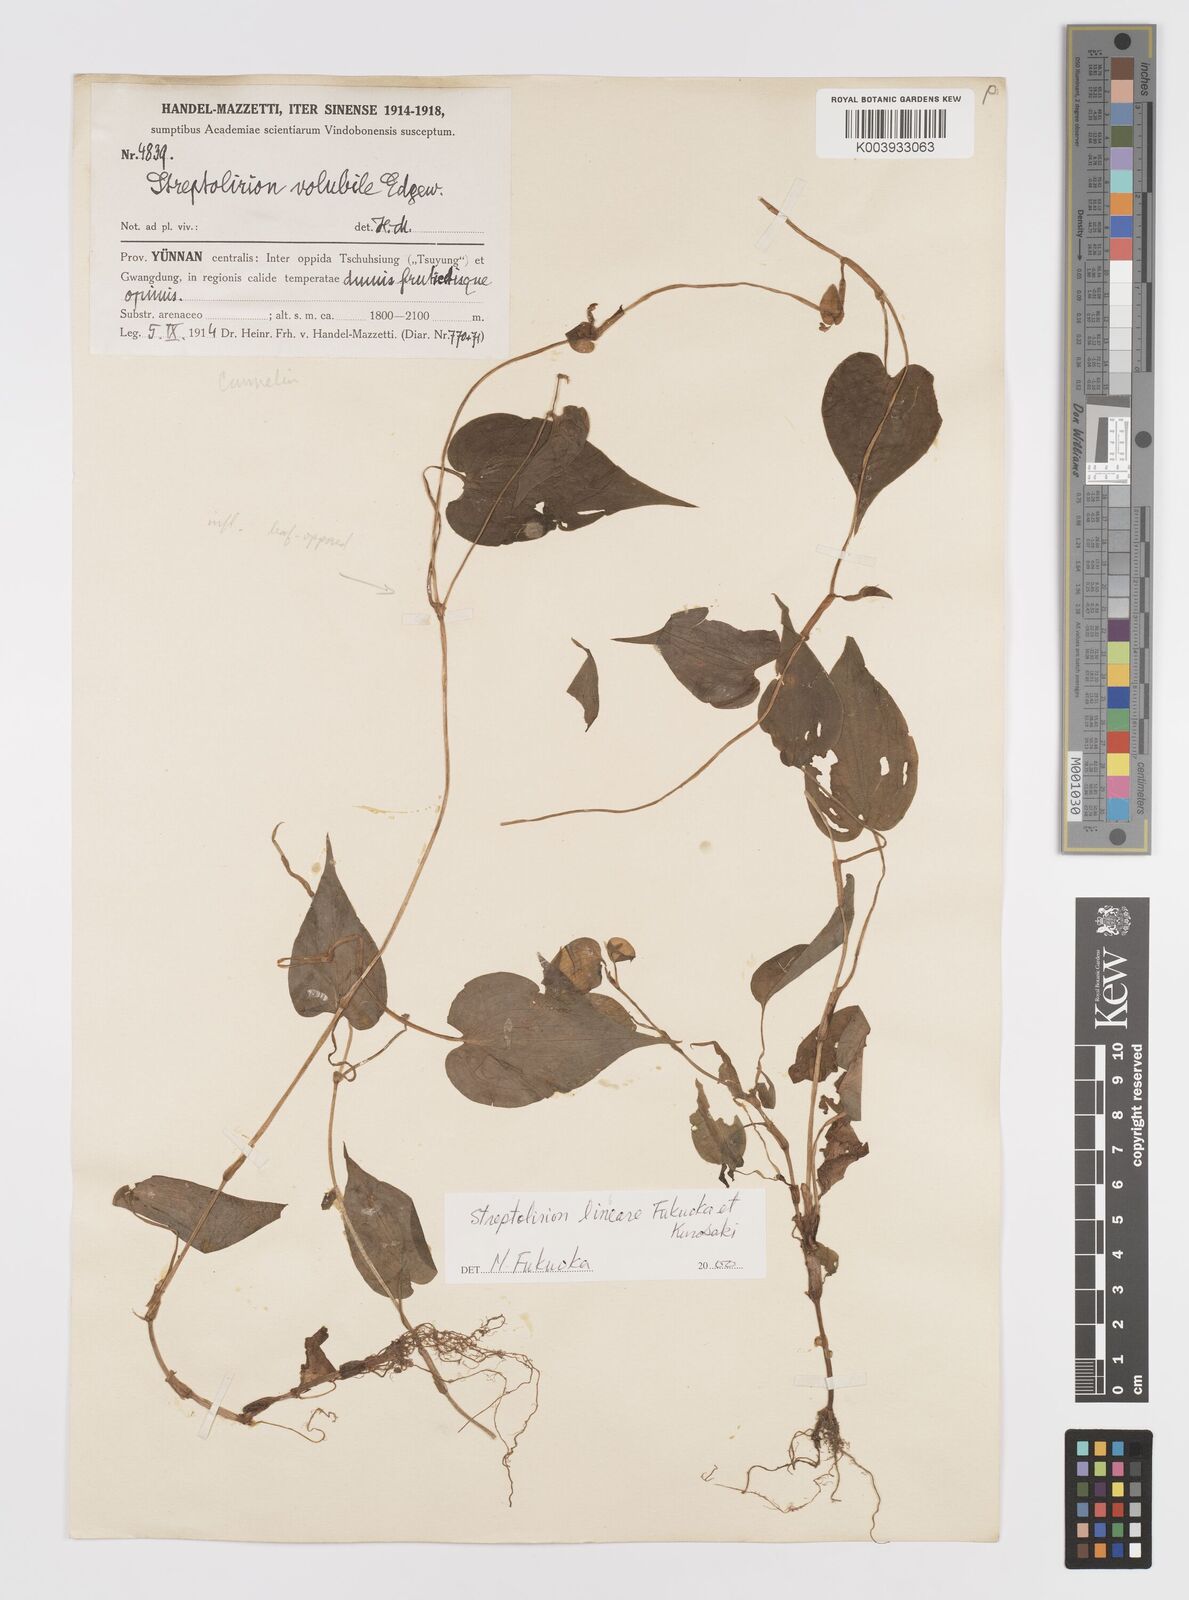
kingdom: Plantae
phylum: Tracheophyta
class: Liliopsida
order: Commelinales
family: Commelinaceae
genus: Streptolirion
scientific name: Streptolirion lineare
